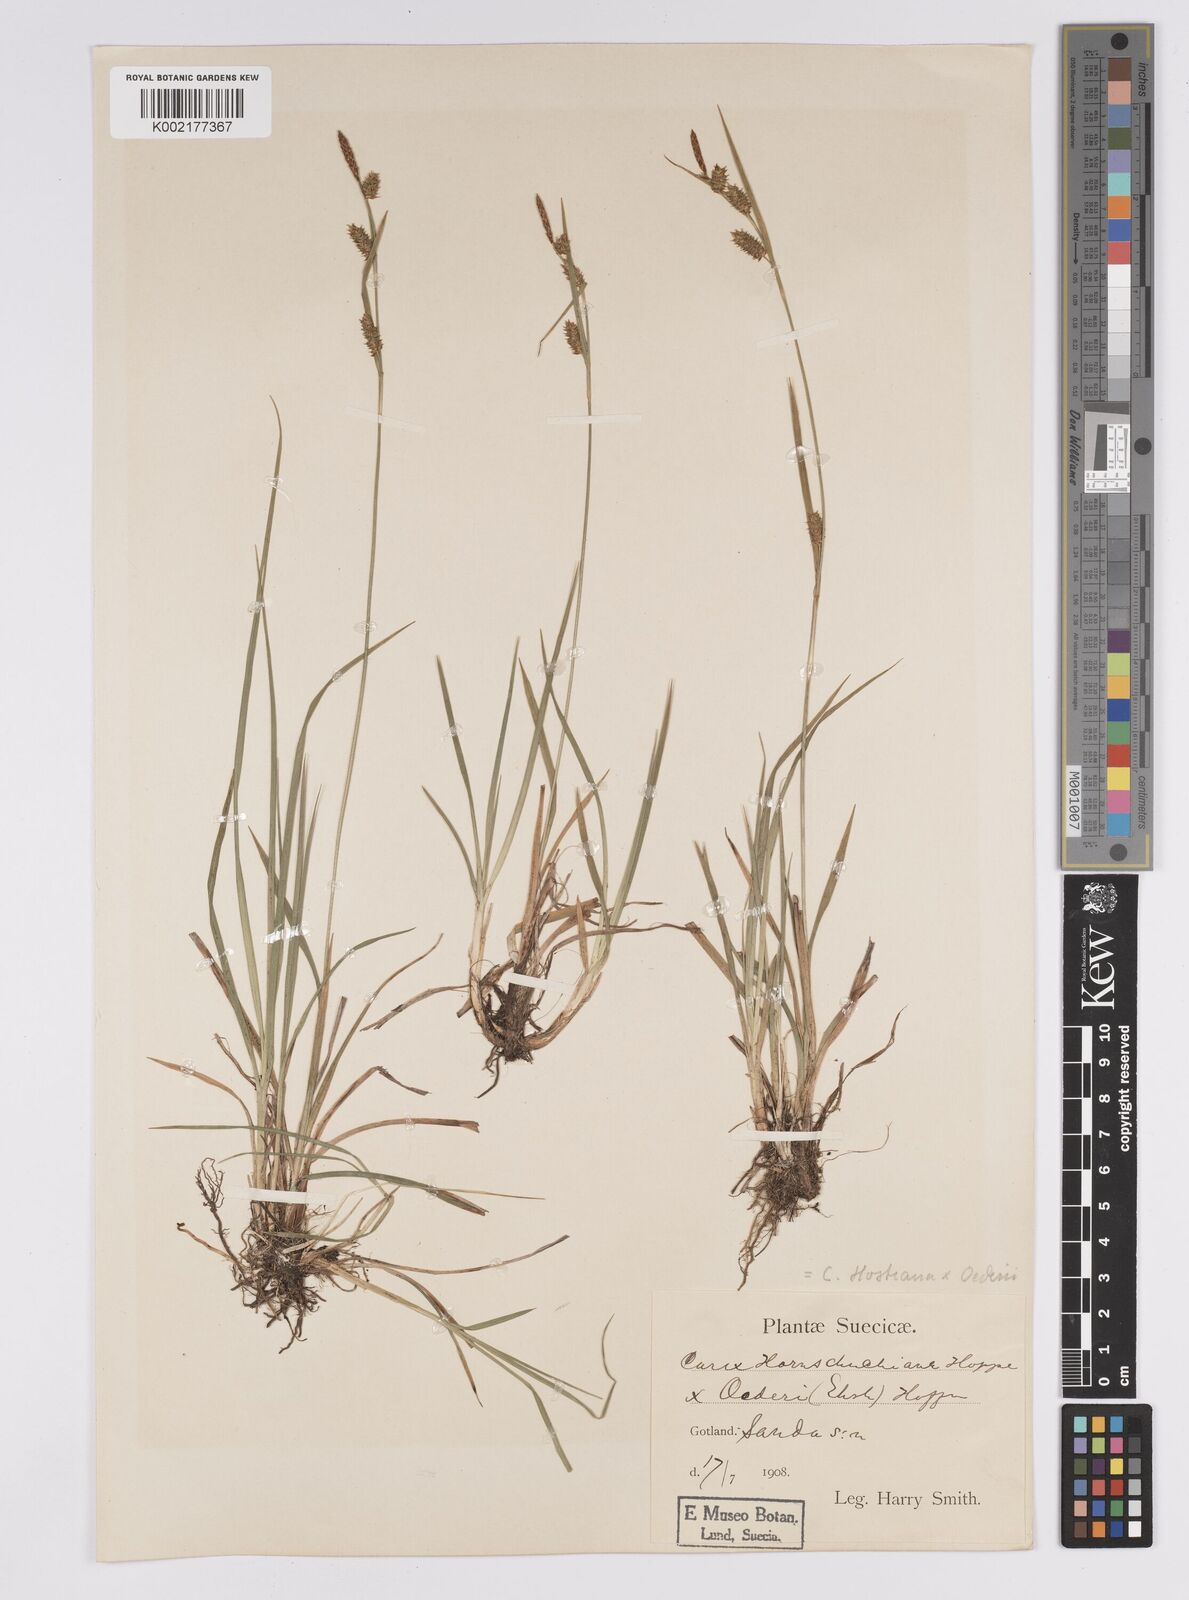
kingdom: Plantae
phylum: Tracheophyta
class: Liliopsida
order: Poales
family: Cyperaceae
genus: Carex
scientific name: Carex hostiana
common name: Tawny sedge
